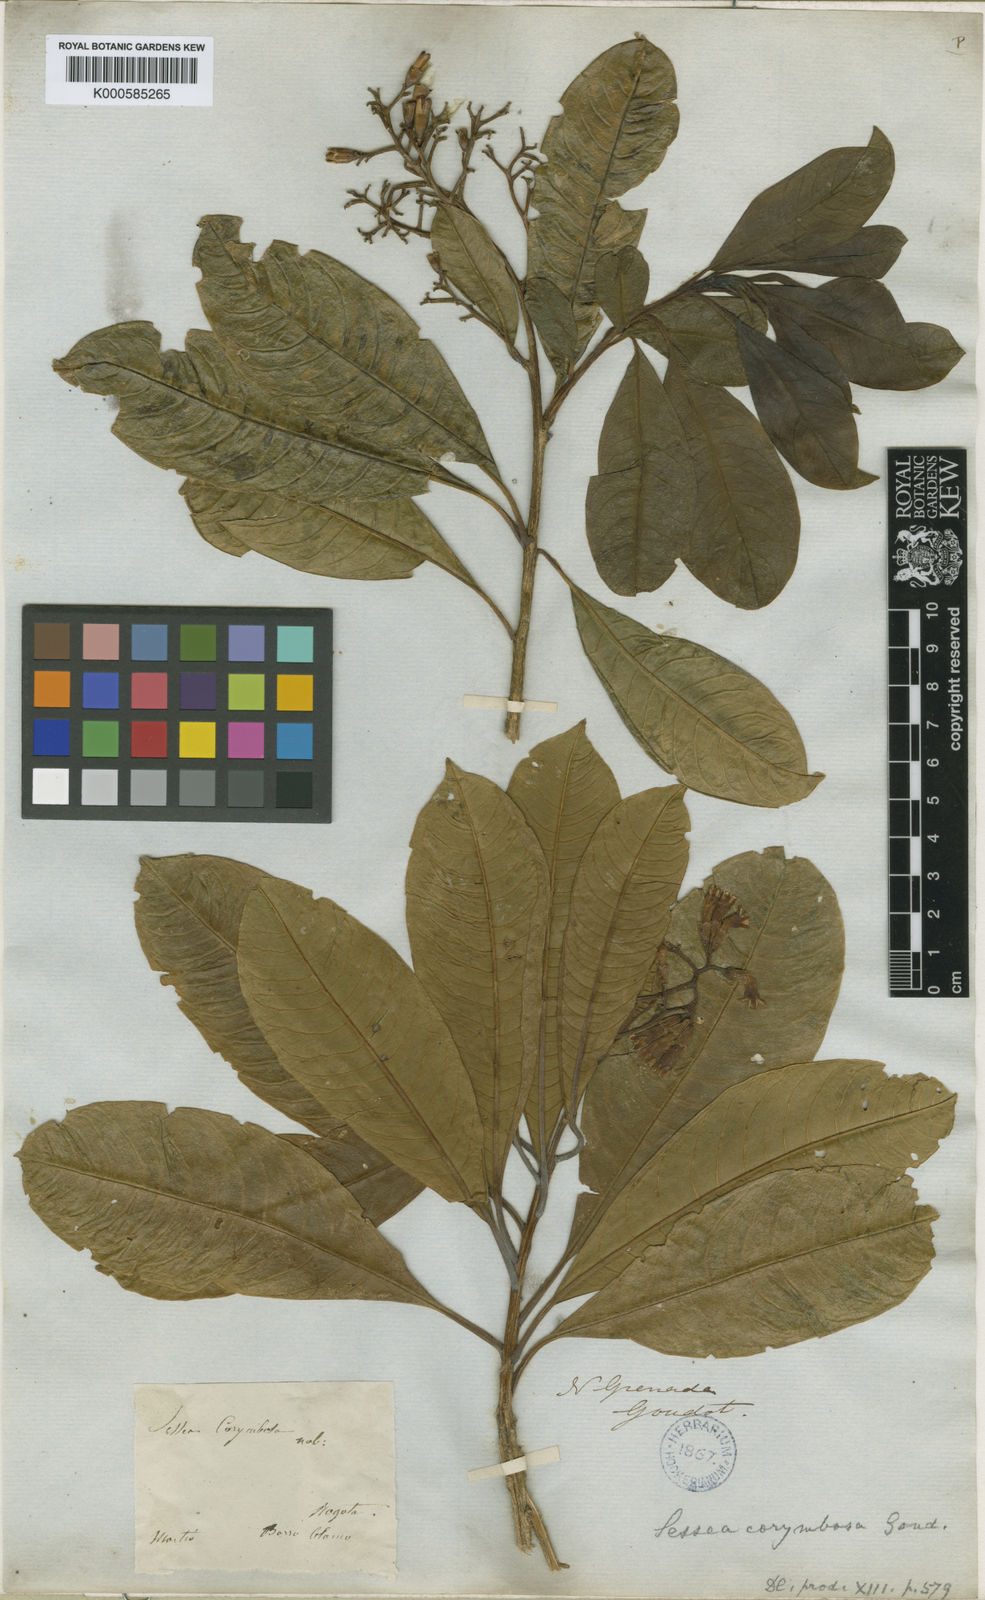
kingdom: Plantae
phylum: Tracheophyta
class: Magnoliopsida
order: Solanales
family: Solanaceae
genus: Sessea
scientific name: Sessea corymbiflora
